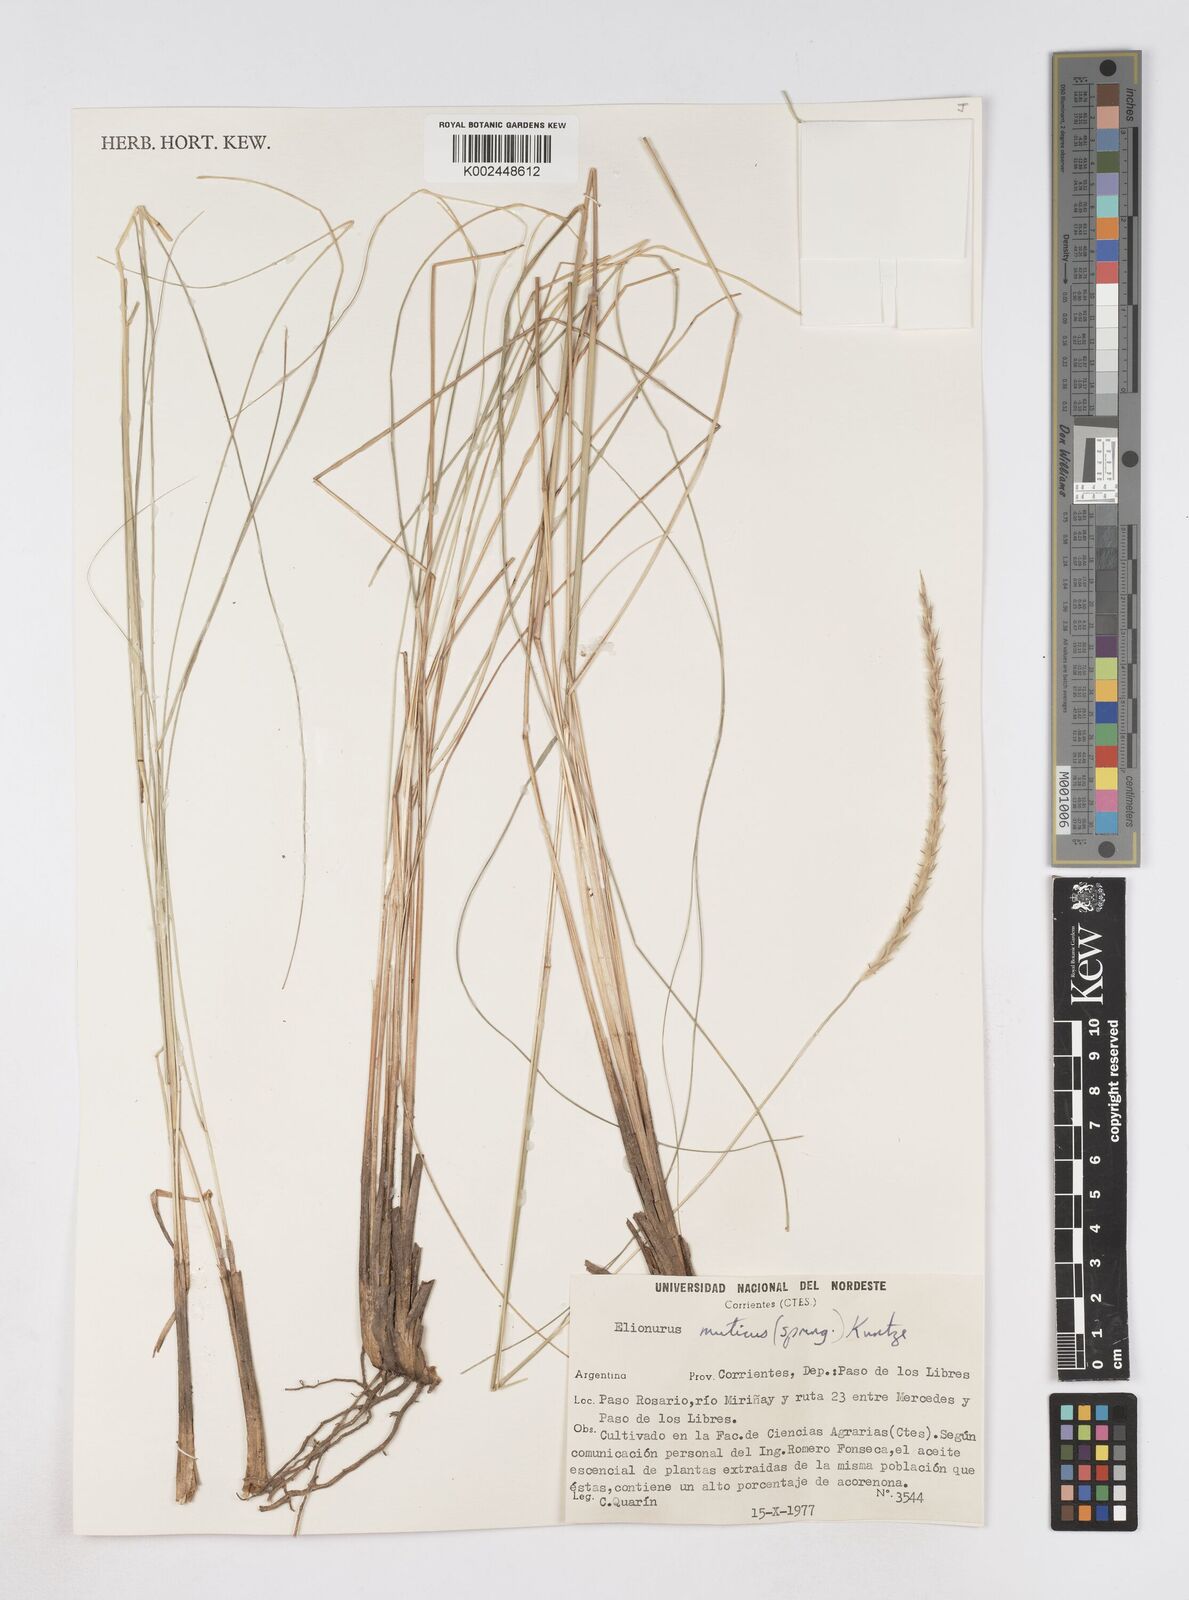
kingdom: Plantae
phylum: Tracheophyta
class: Liliopsida
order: Poales
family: Poaceae
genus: Elionurus
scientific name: Elionurus muticus
